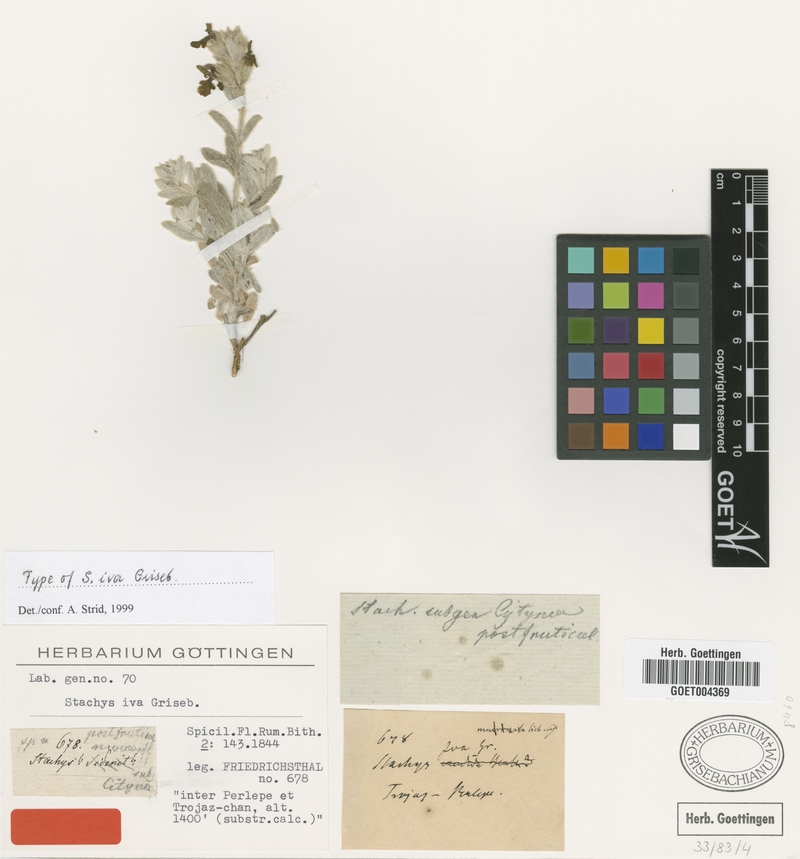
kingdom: Plantae
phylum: Tracheophyta
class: Magnoliopsida
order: Lamiales
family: Lamiaceae
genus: Stachys
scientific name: Stachys iva
